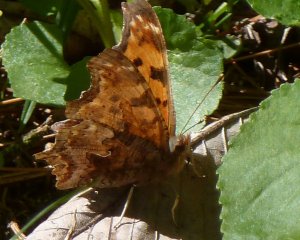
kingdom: Animalia
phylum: Arthropoda
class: Insecta
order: Lepidoptera
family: Nymphalidae
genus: Polygonia
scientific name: Polygonia comma
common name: Eastern Comma
